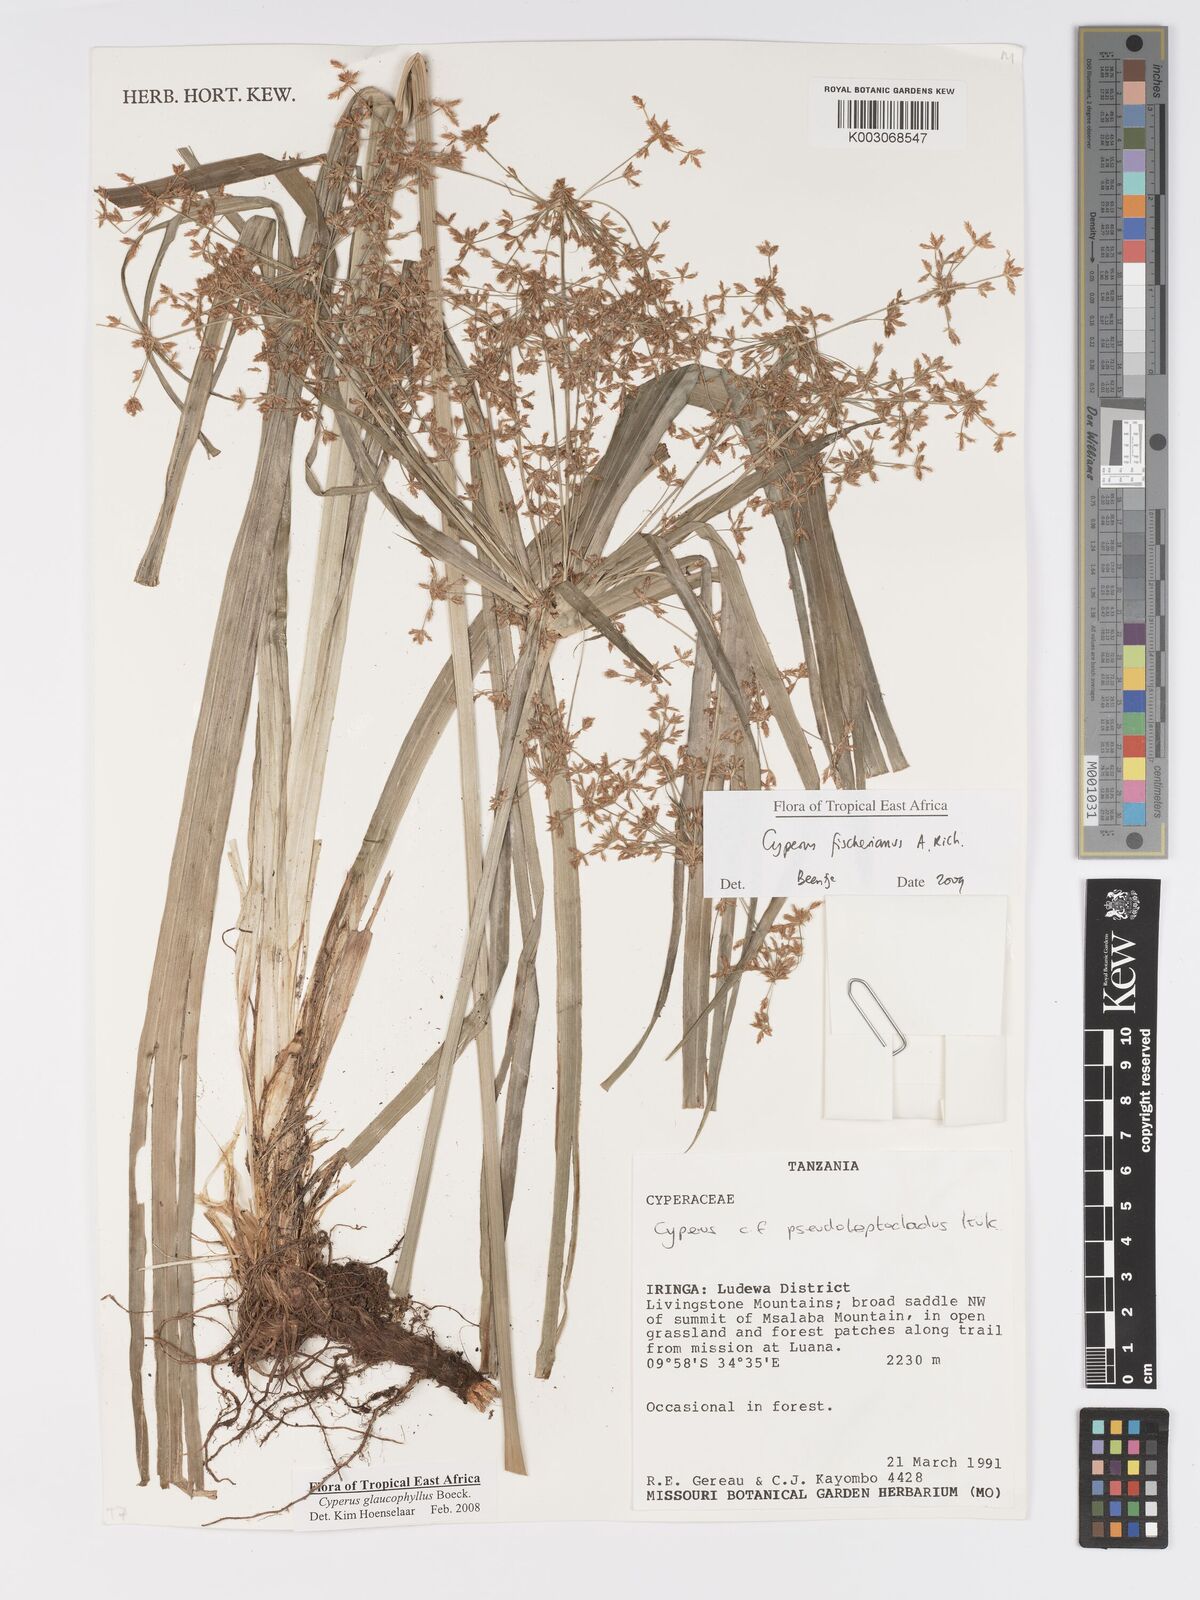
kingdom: Plantae
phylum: Tracheophyta
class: Liliopsida
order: Poales
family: Cyperaceae
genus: Cyperus
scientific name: Cyperus fischerianus
